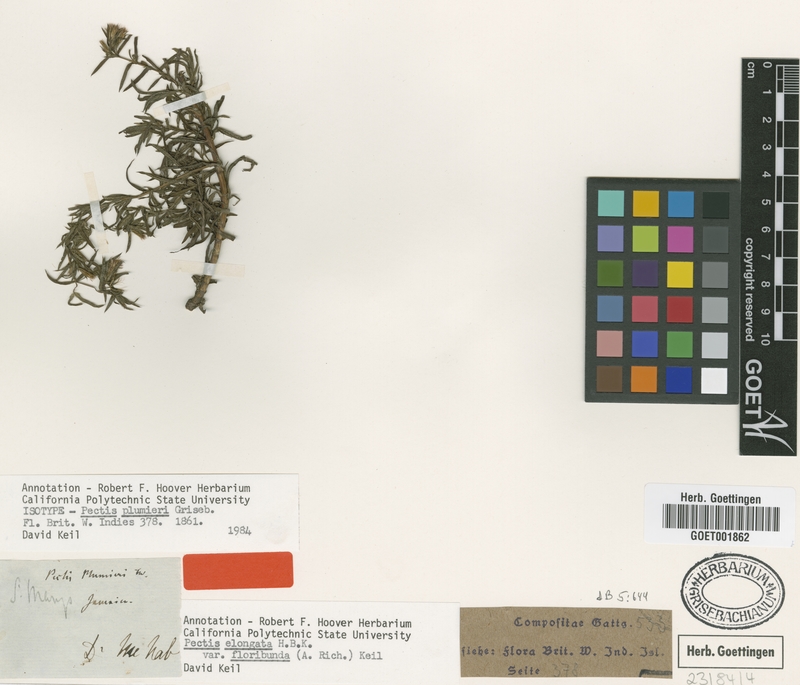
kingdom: Plantae
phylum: Tracheophyta
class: Magnoliopsida
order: Asterales
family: Asteraceae
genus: Pectis
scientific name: Pectis elongata
